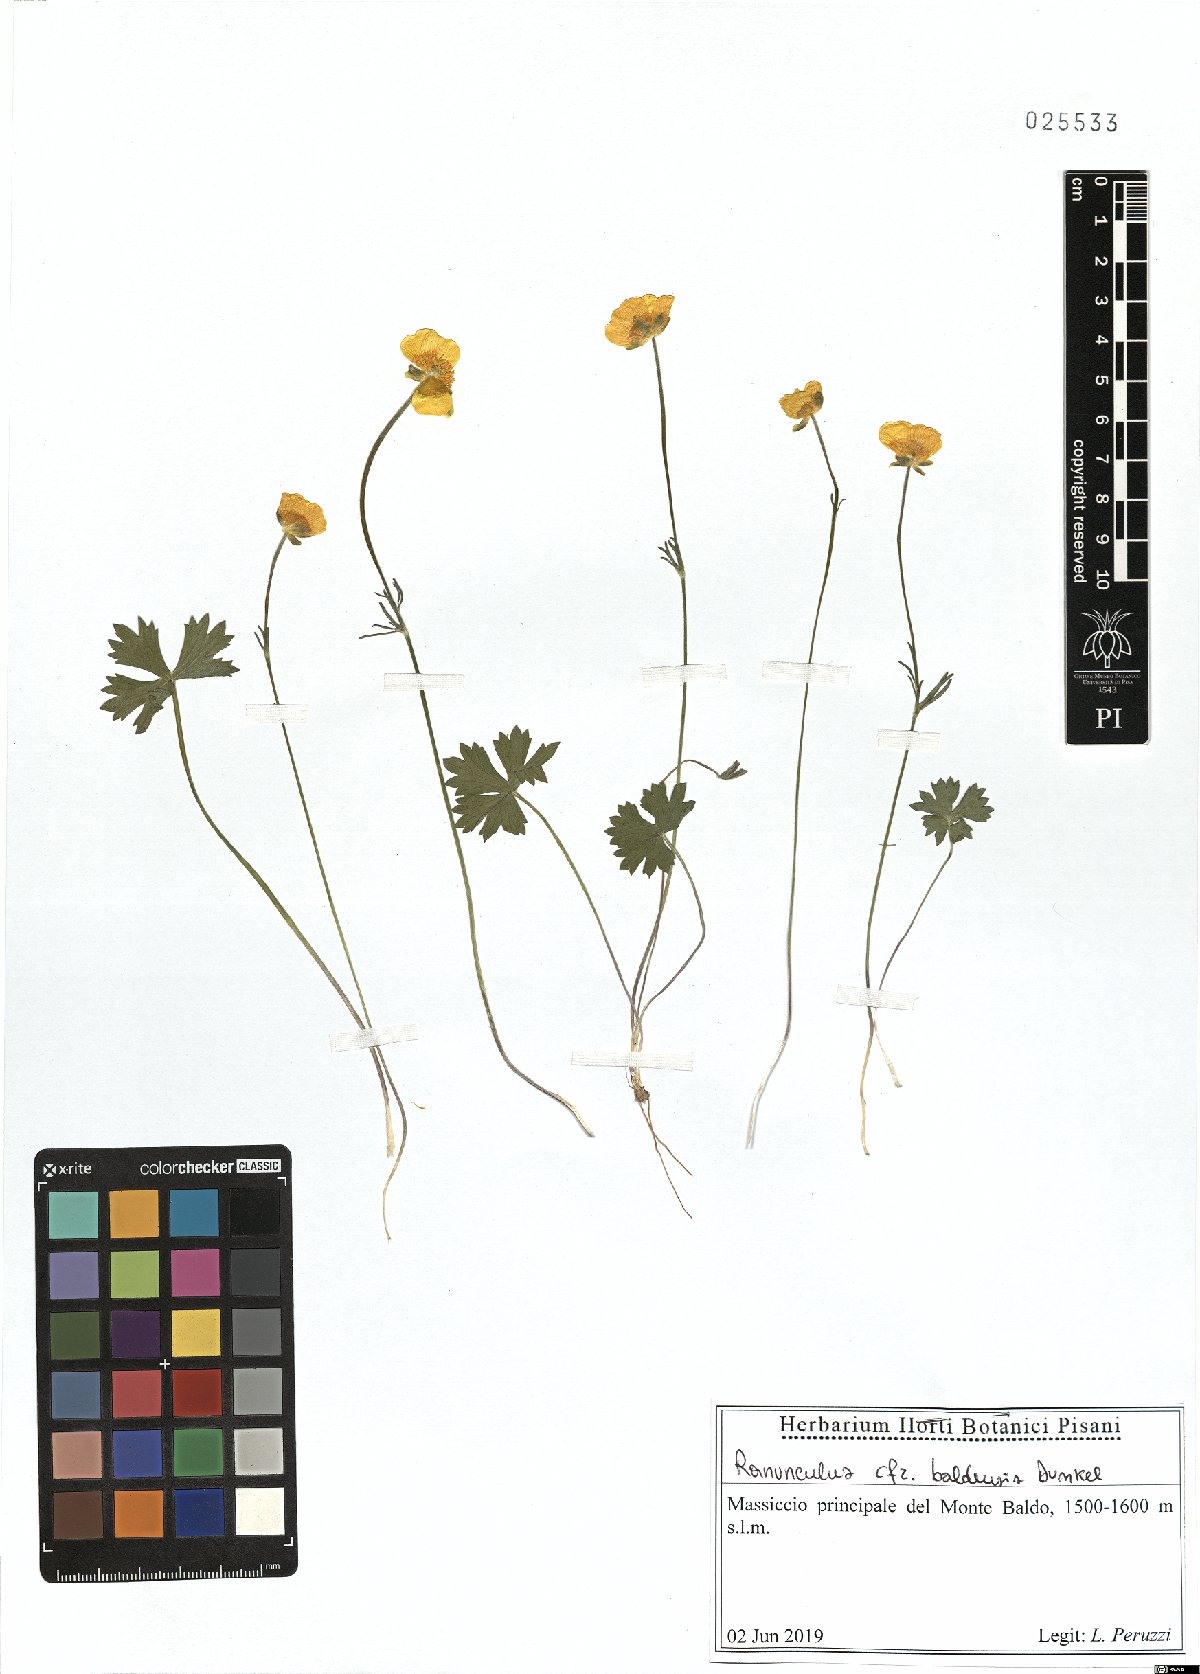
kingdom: Plantae
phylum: Tracheophyta
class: Magnoliopsida
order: Ranunculales
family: Ranunculaceae
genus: Ranunculus
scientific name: Ranunculus baldensis
